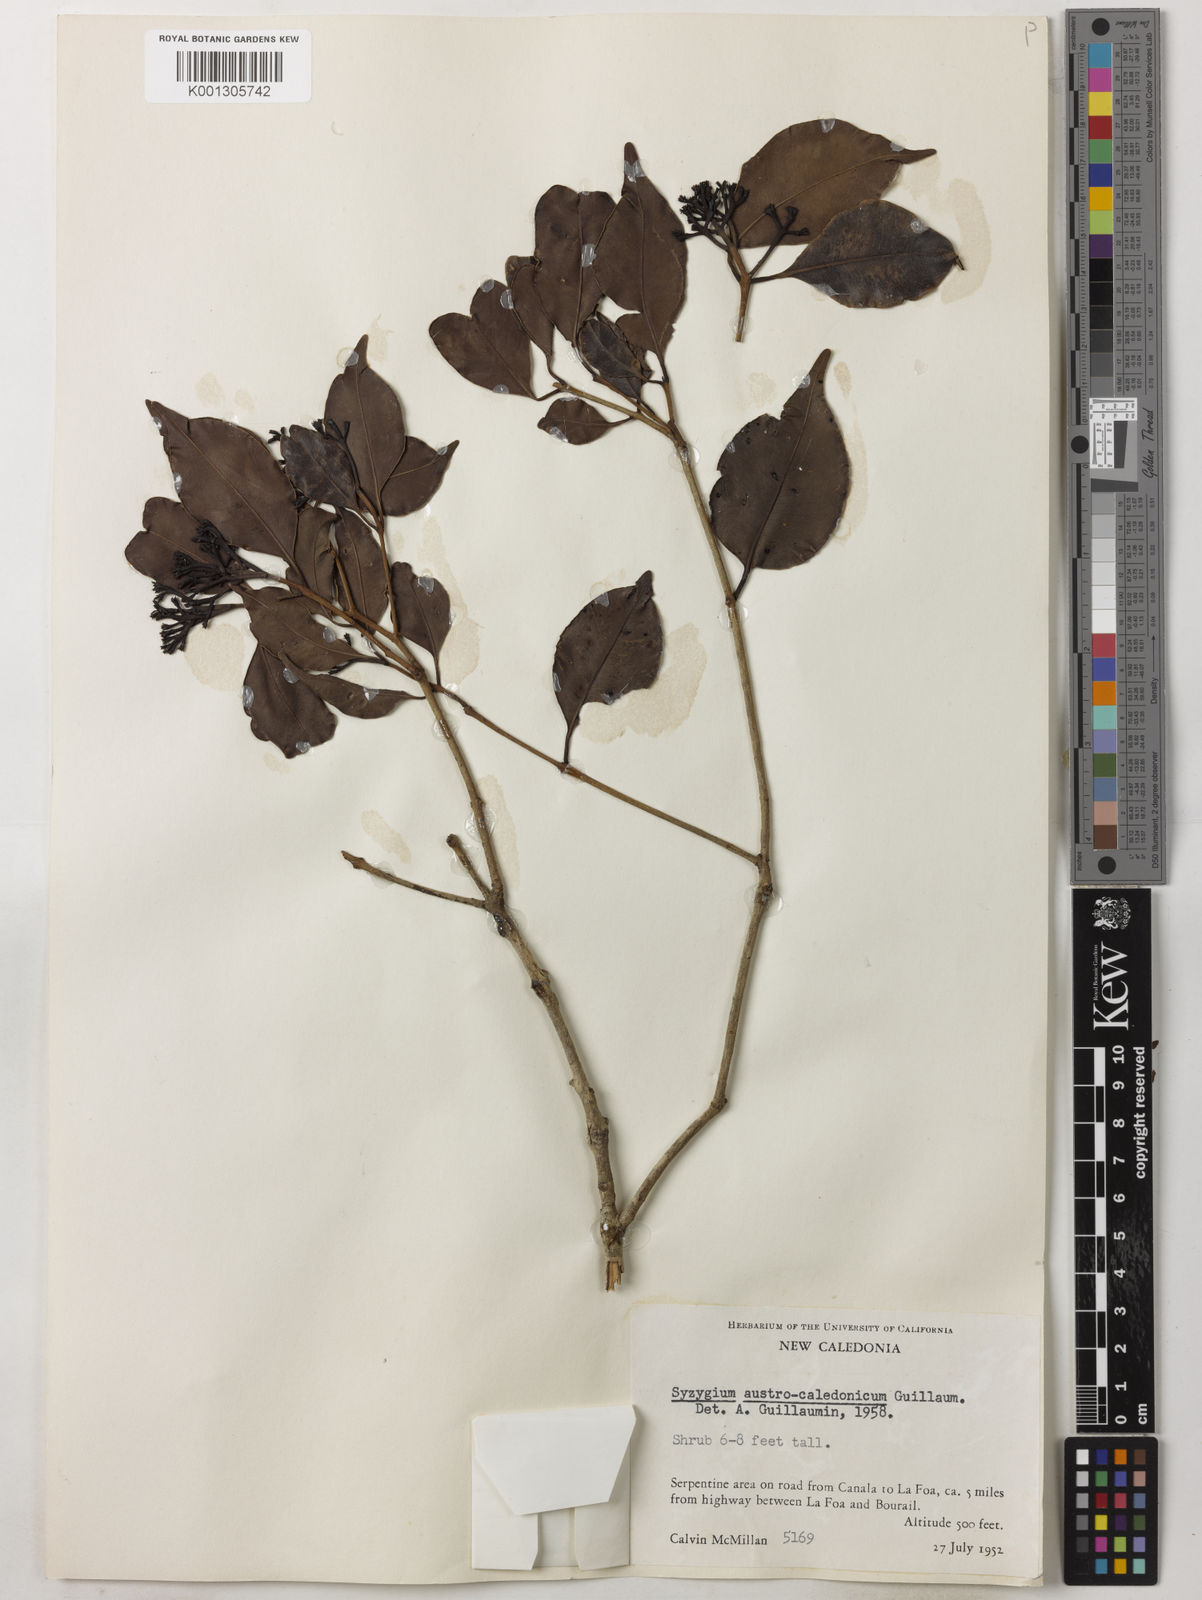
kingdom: Plantae
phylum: Tracheophyta
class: Magnoliopsida
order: Myrtales
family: Myrtaceae
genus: Syzygium
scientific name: Syzygium austrocaledonicum
